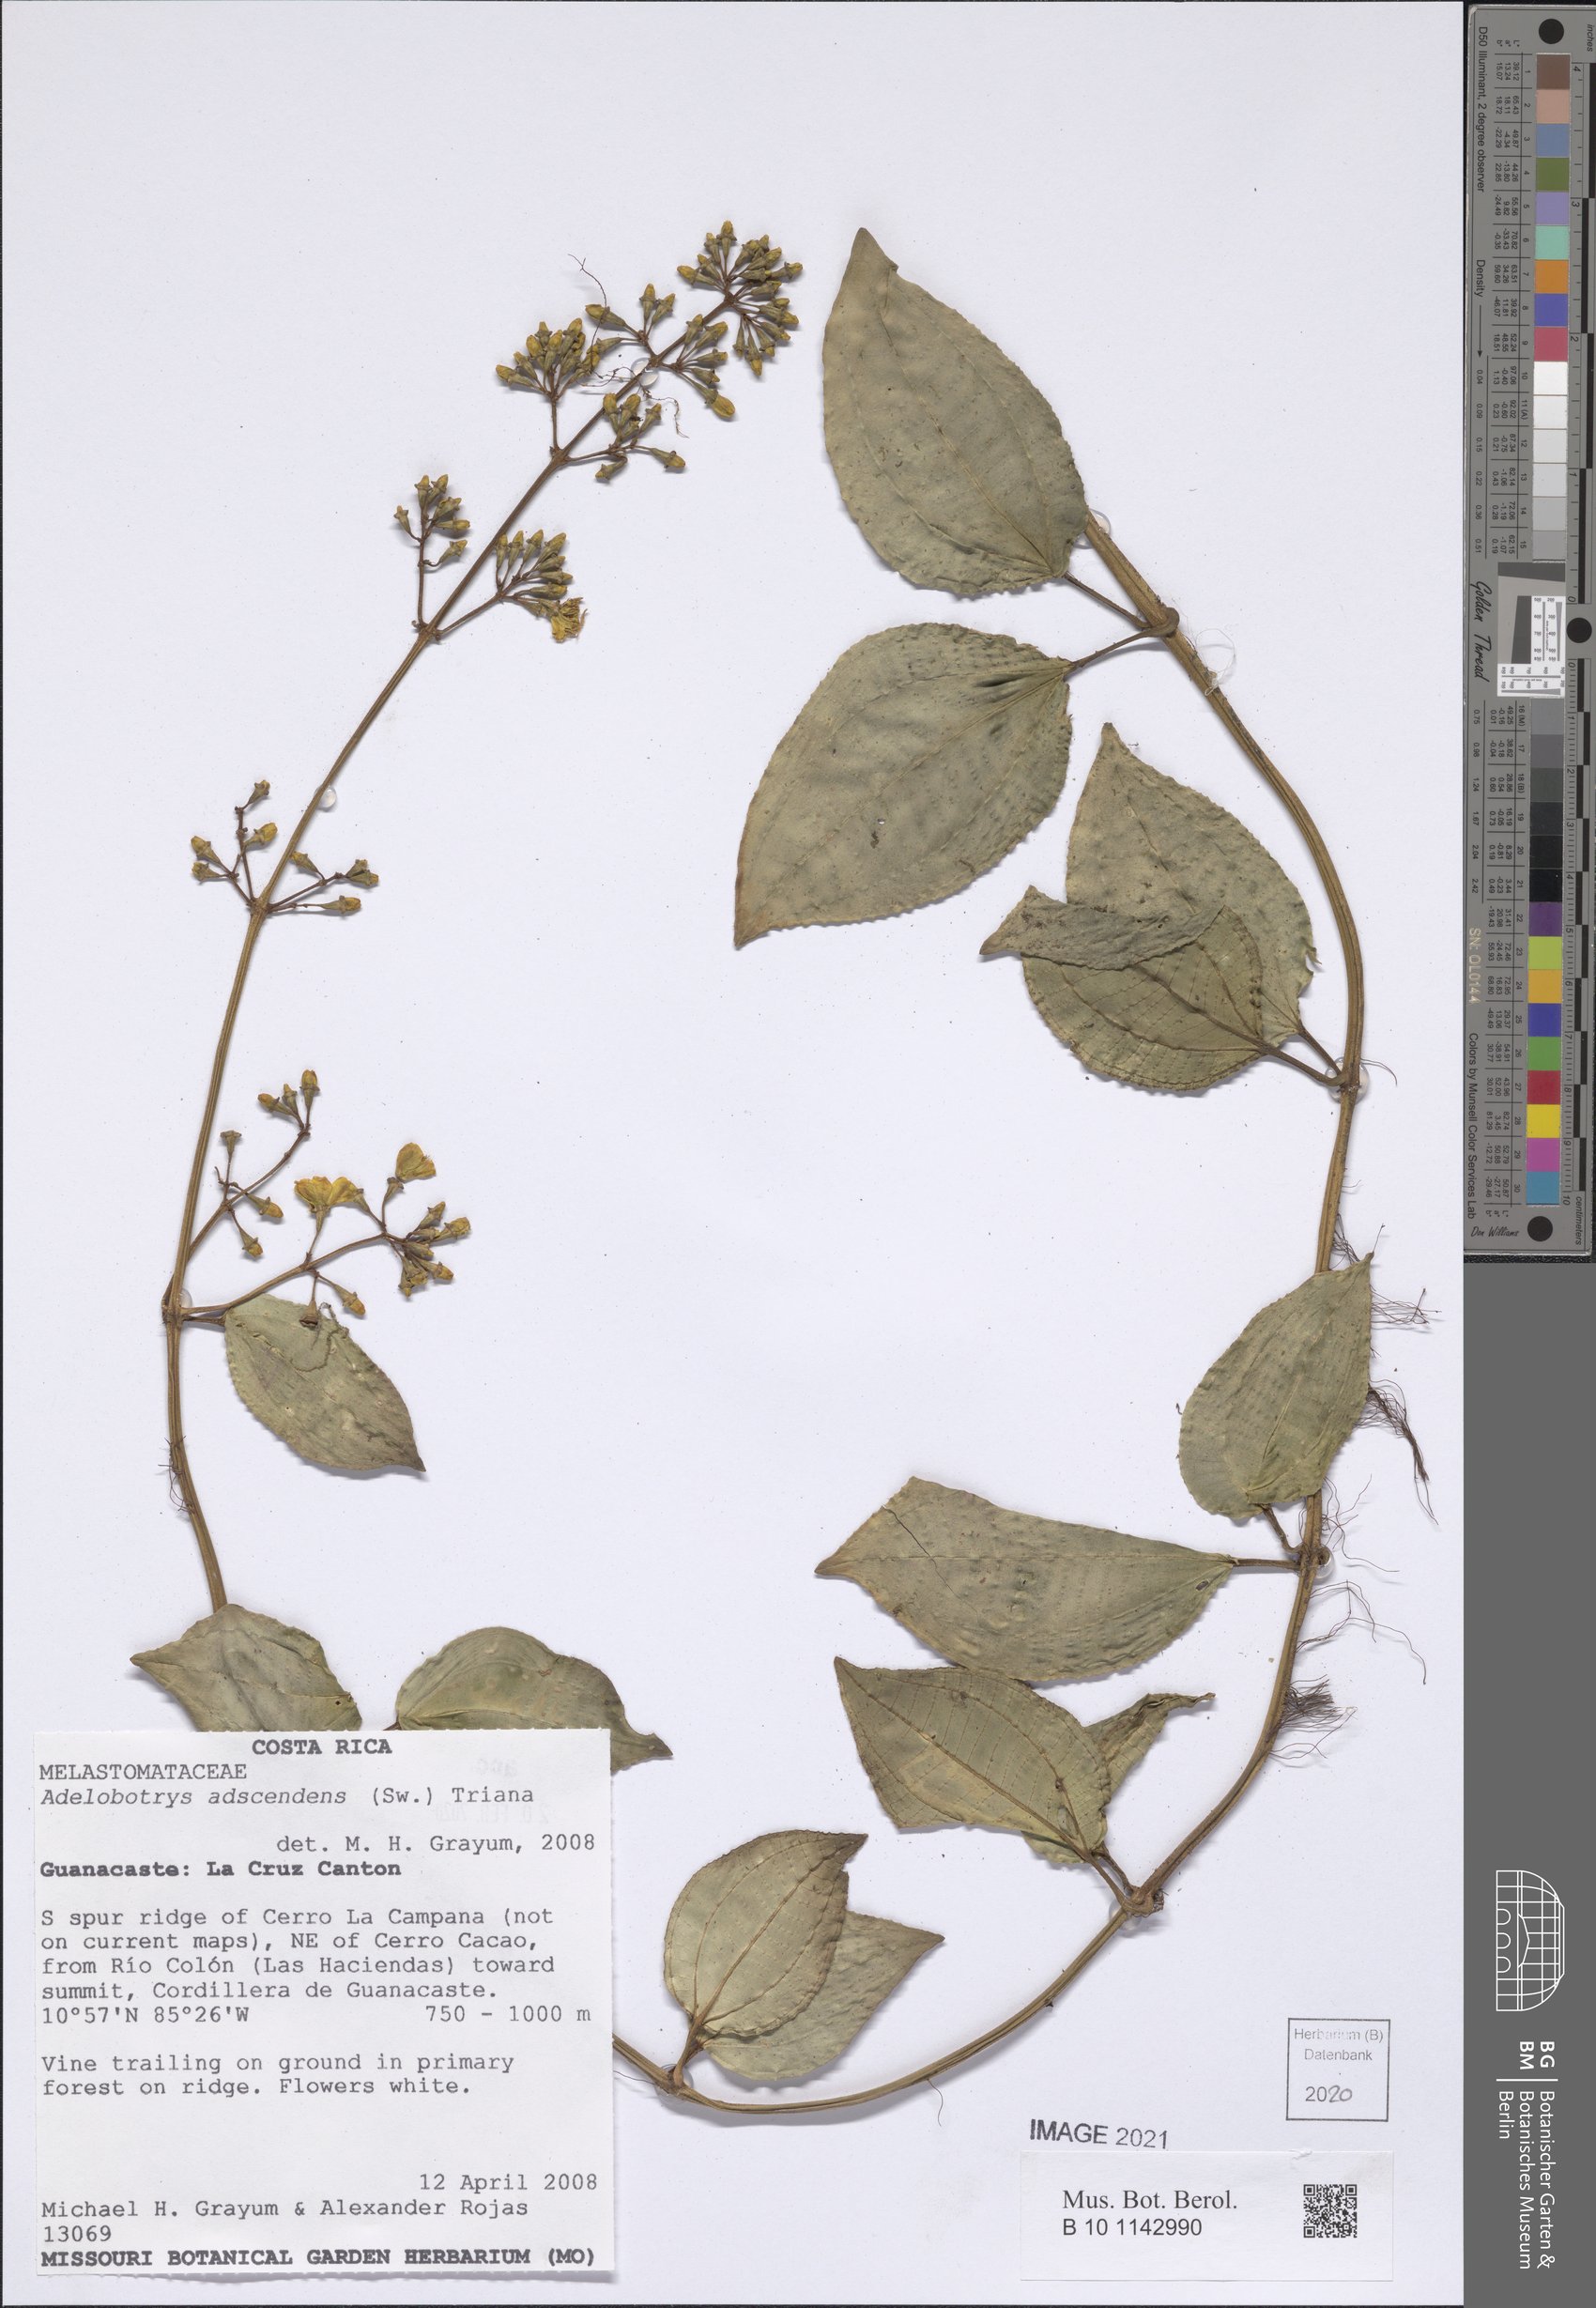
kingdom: Plantae
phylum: Tracheophyta
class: Magnoliopsida
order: Myrtales
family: Melastomataceae
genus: Adelobotrys
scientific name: Adelobotrys adscendens
